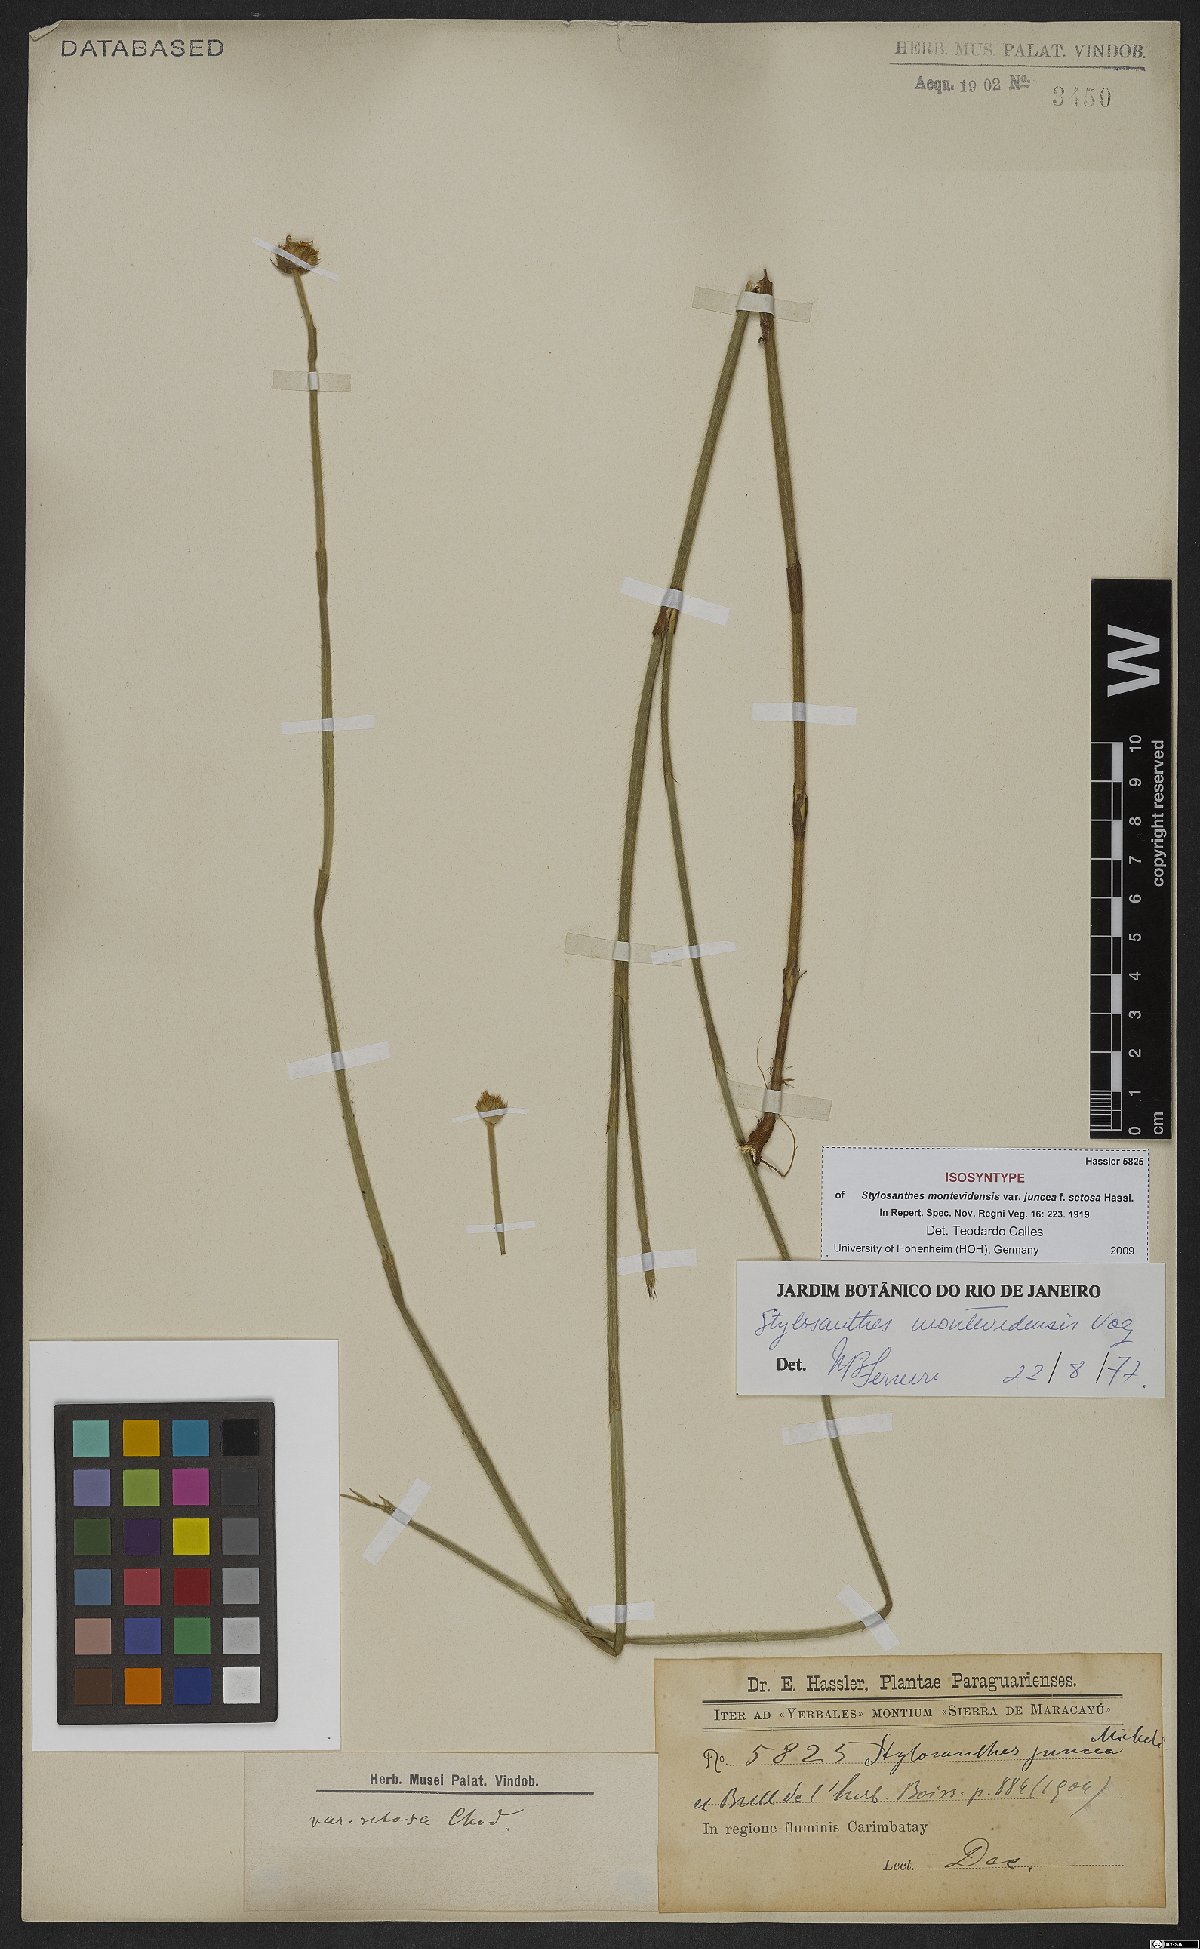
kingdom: Plantae
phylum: Tracheophyta
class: Magnoliopsida
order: Fabales
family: Fabaceae
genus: Stylosanthes
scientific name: Stylosanthes montevidensis
